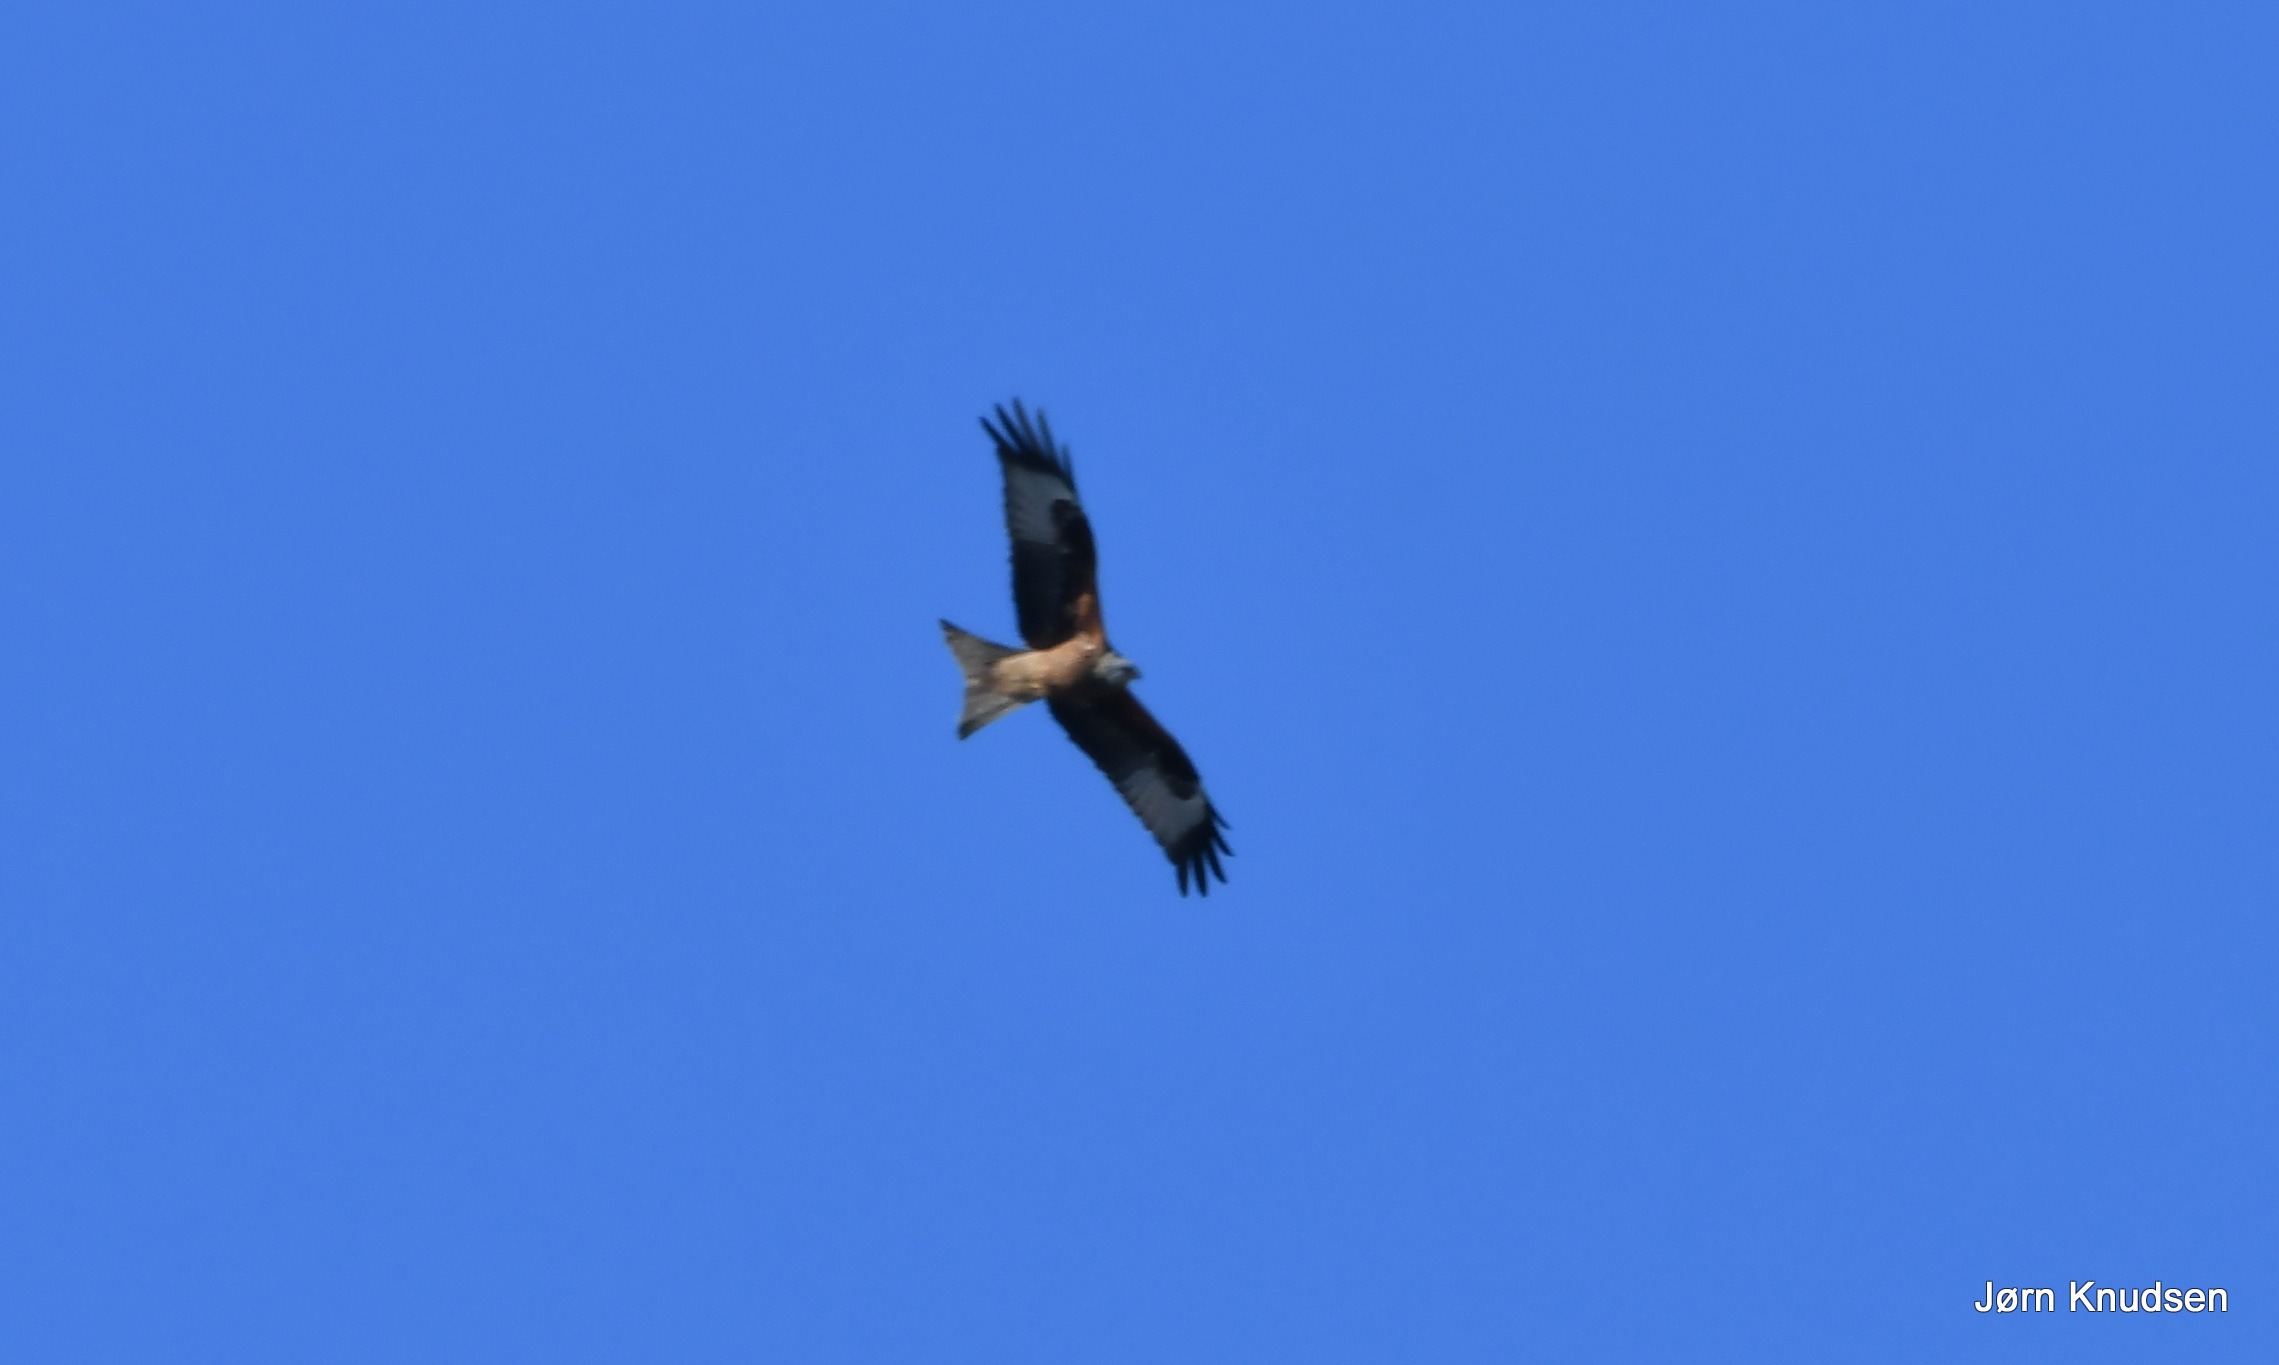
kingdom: Animalia
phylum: Chordata
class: Aves
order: Accipitriformes
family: Accipitridae
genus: Milvus
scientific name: Milvus milvus
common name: Rød glente
